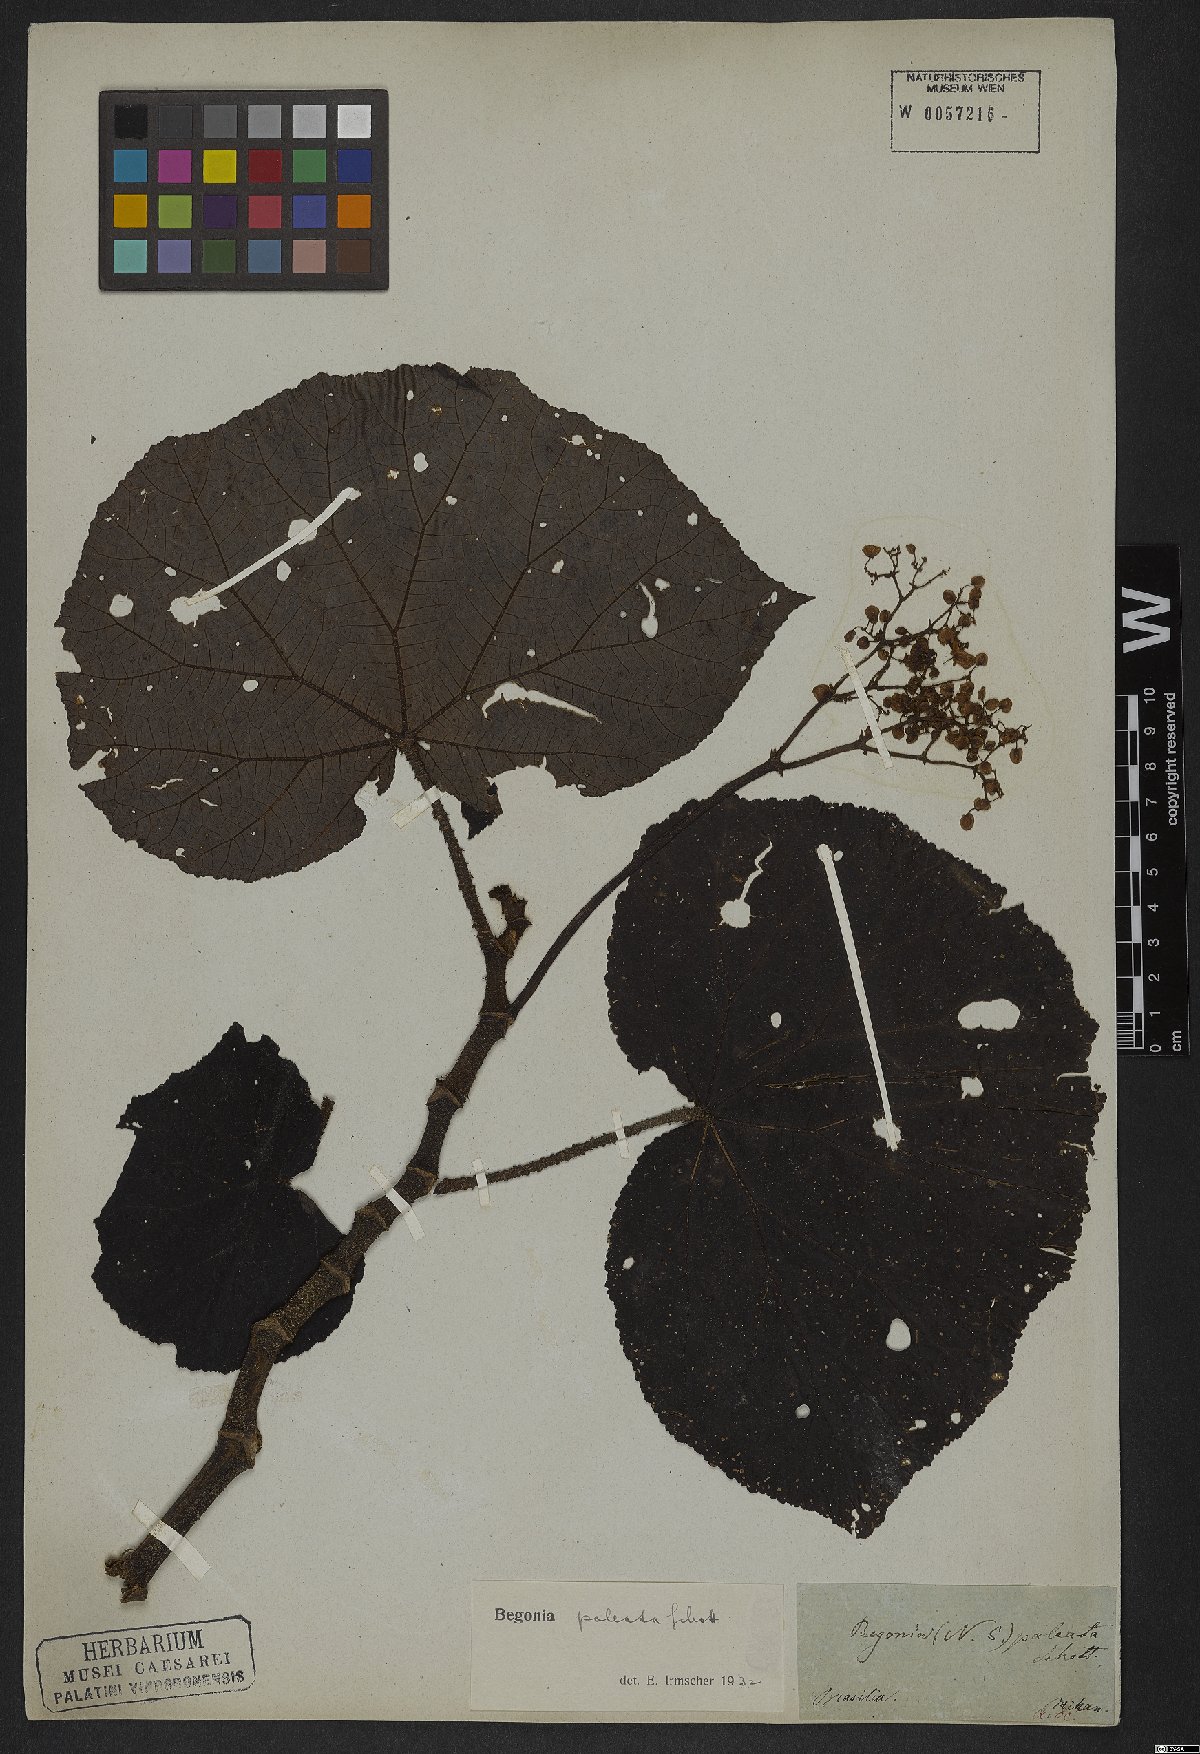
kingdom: Plantae
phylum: Tracheophyta
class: Magnoliopsida
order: Cucurbitales
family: Begoniaceae
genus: Begonia
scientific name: Begonia paleata
